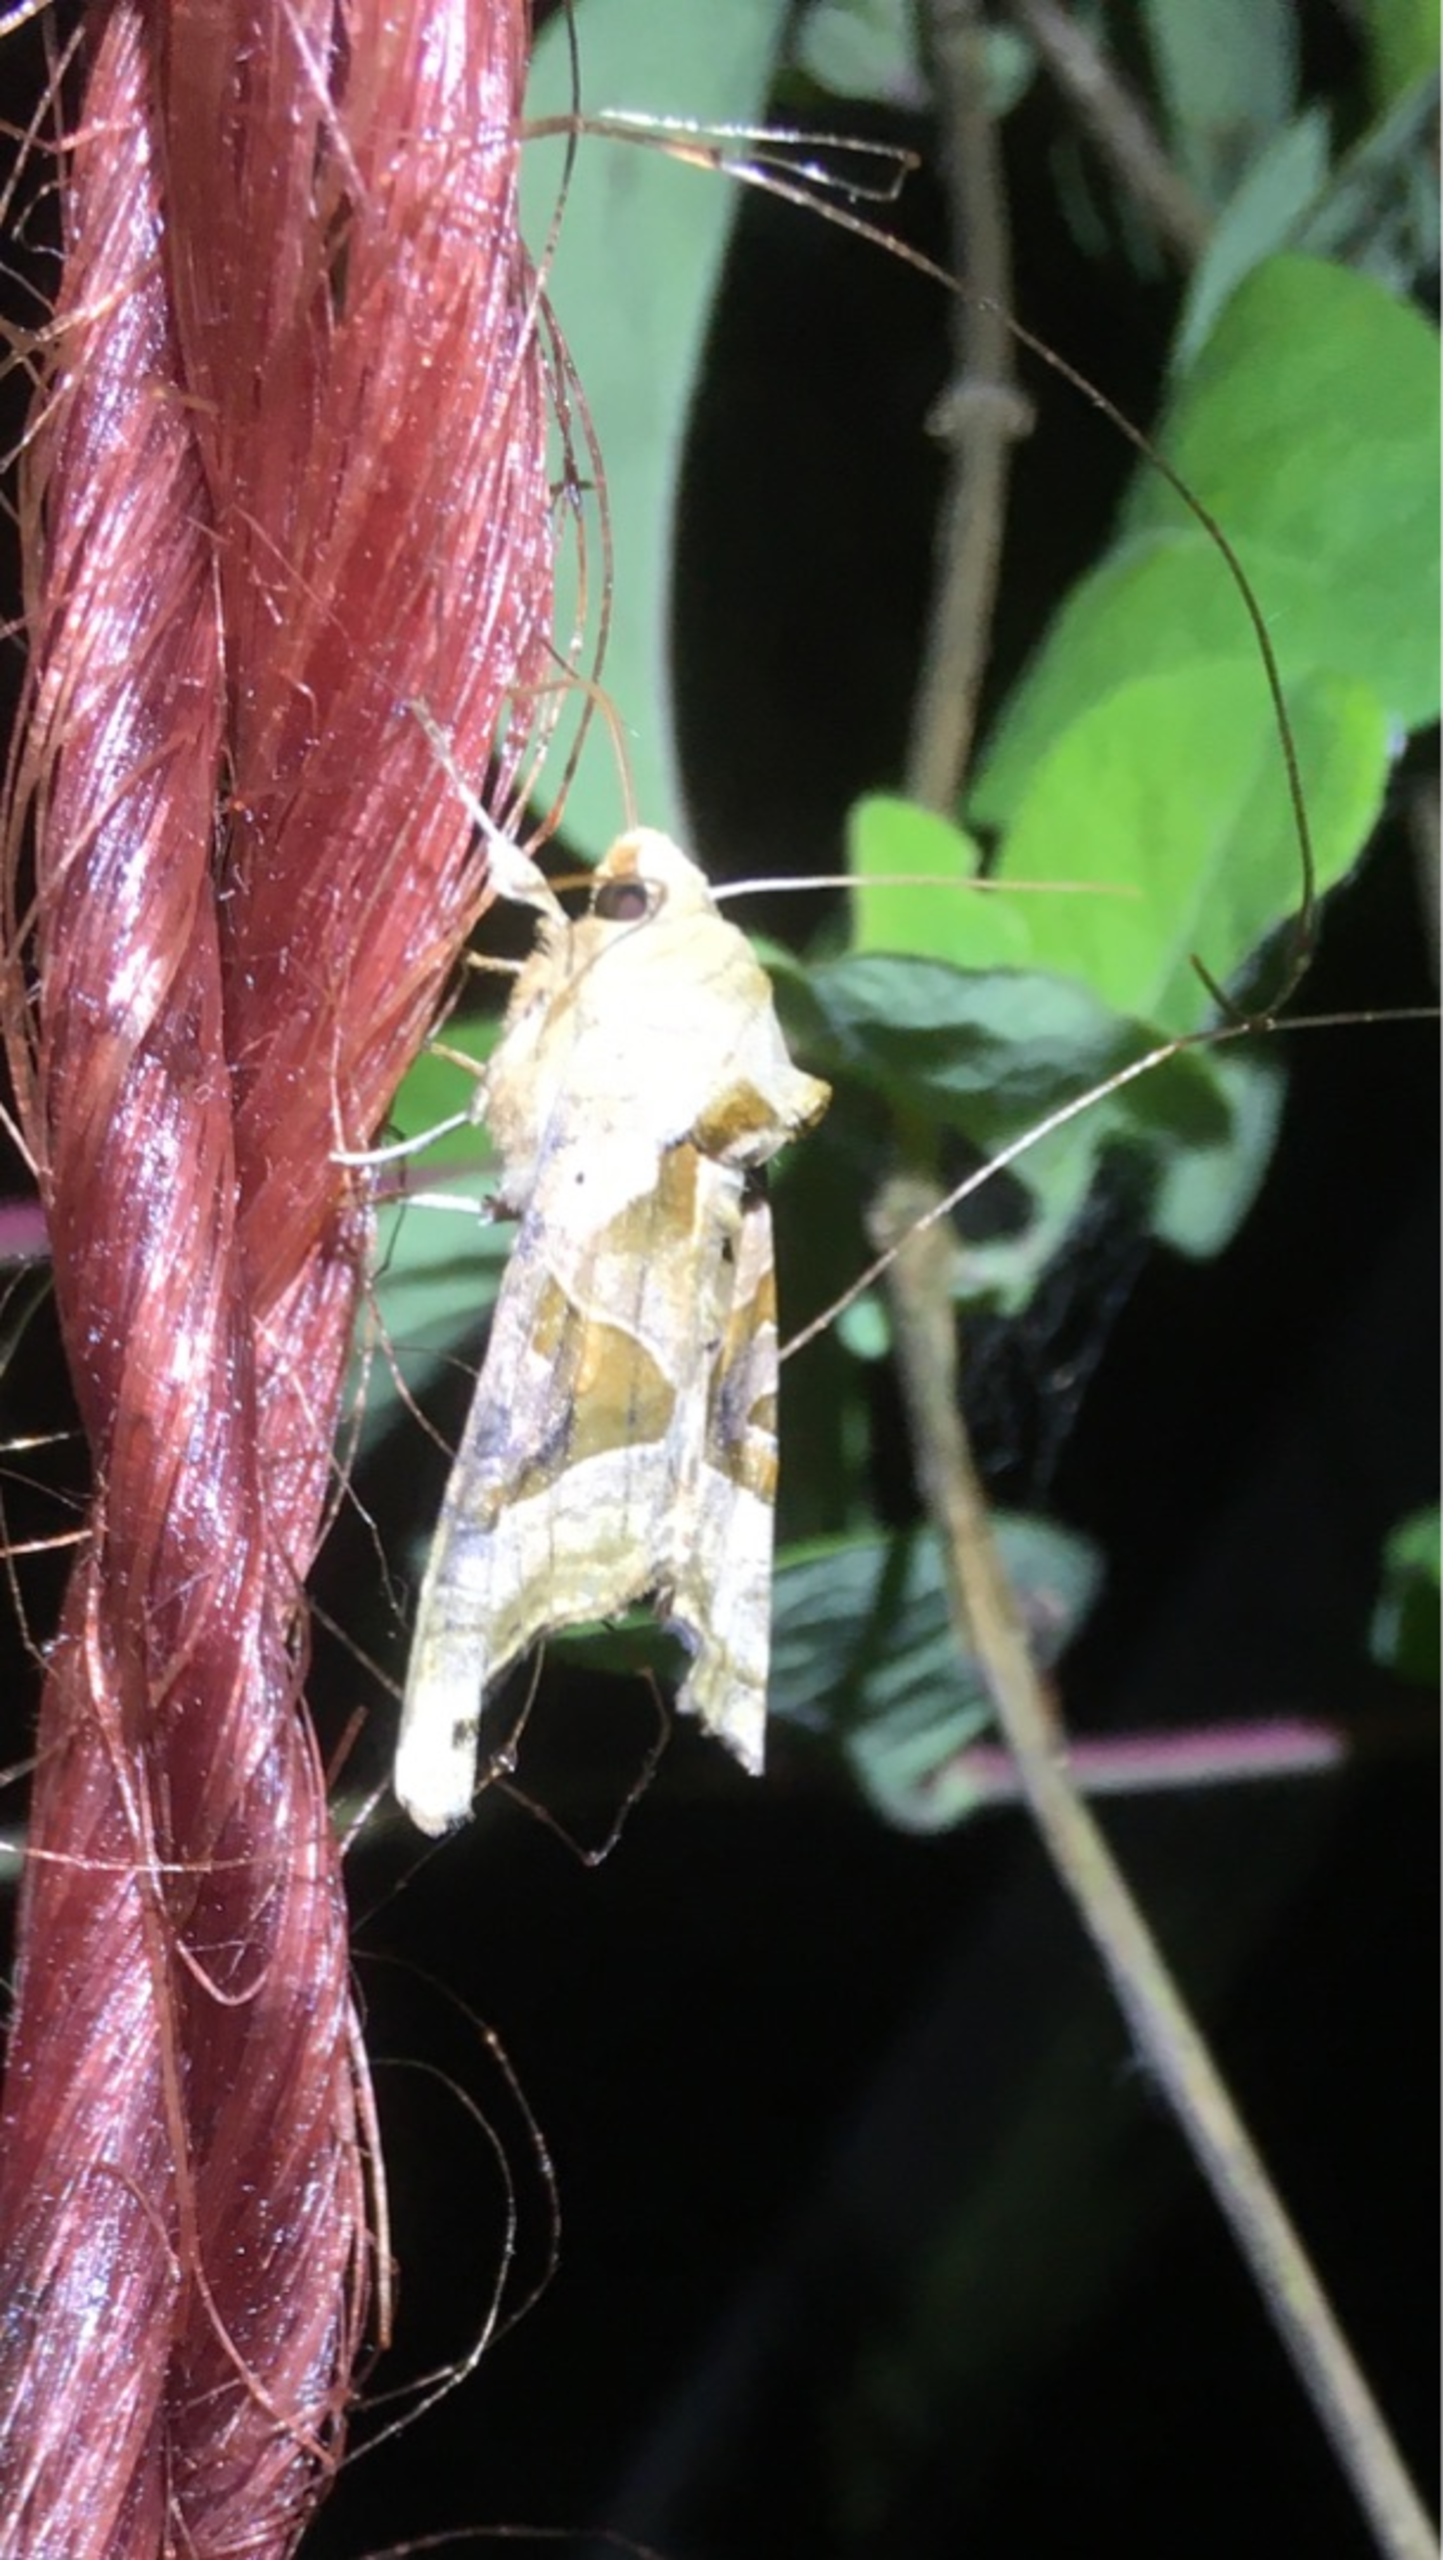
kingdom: Animalia
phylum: Arthropoda
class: Insecta
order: Lepidoptera
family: Noctuidae
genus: Phlogophora
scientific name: Phlogophora meticulosa
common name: Agatugle
